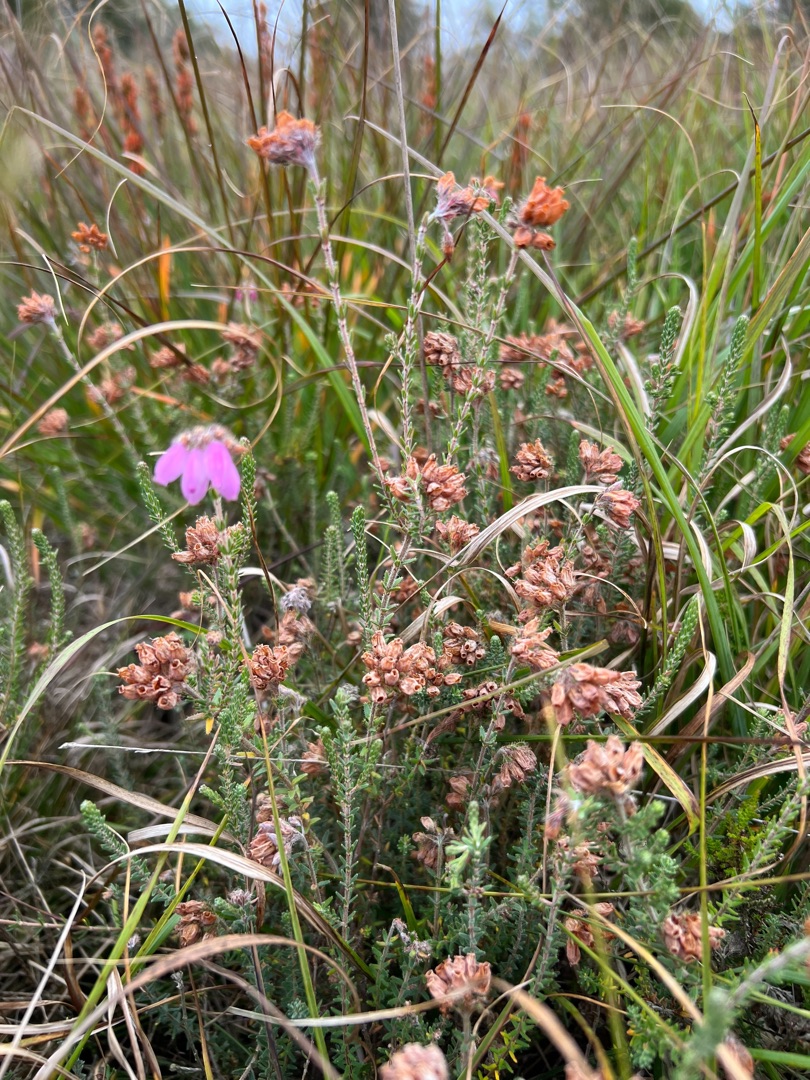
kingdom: Plantae
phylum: Tracheophyta
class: Magnoliopsida
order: Ericales
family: Ericaceae
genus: Erica
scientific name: Erica tetralix
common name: Klokkelyng
